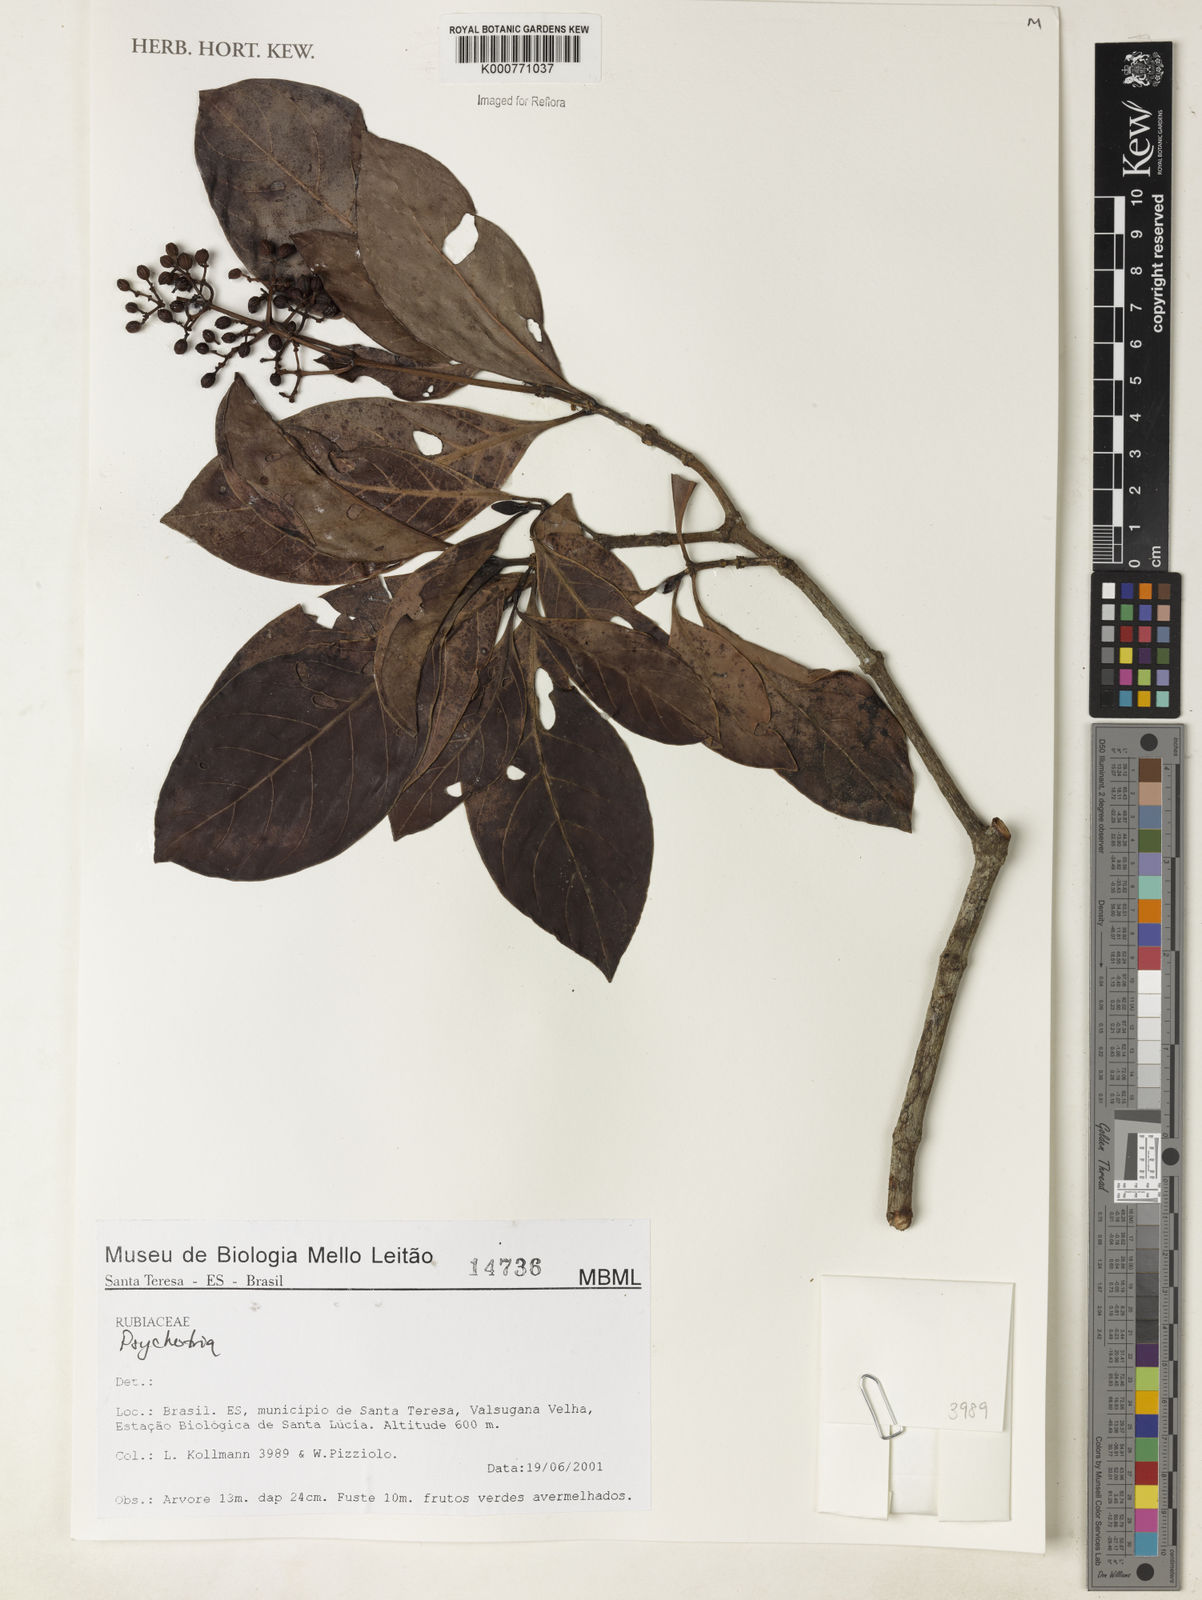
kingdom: Plantae
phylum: Tracheophyta
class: Magnoliopsida
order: Gentianales
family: Rubiaceae
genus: Psychotria
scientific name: Psychotria
